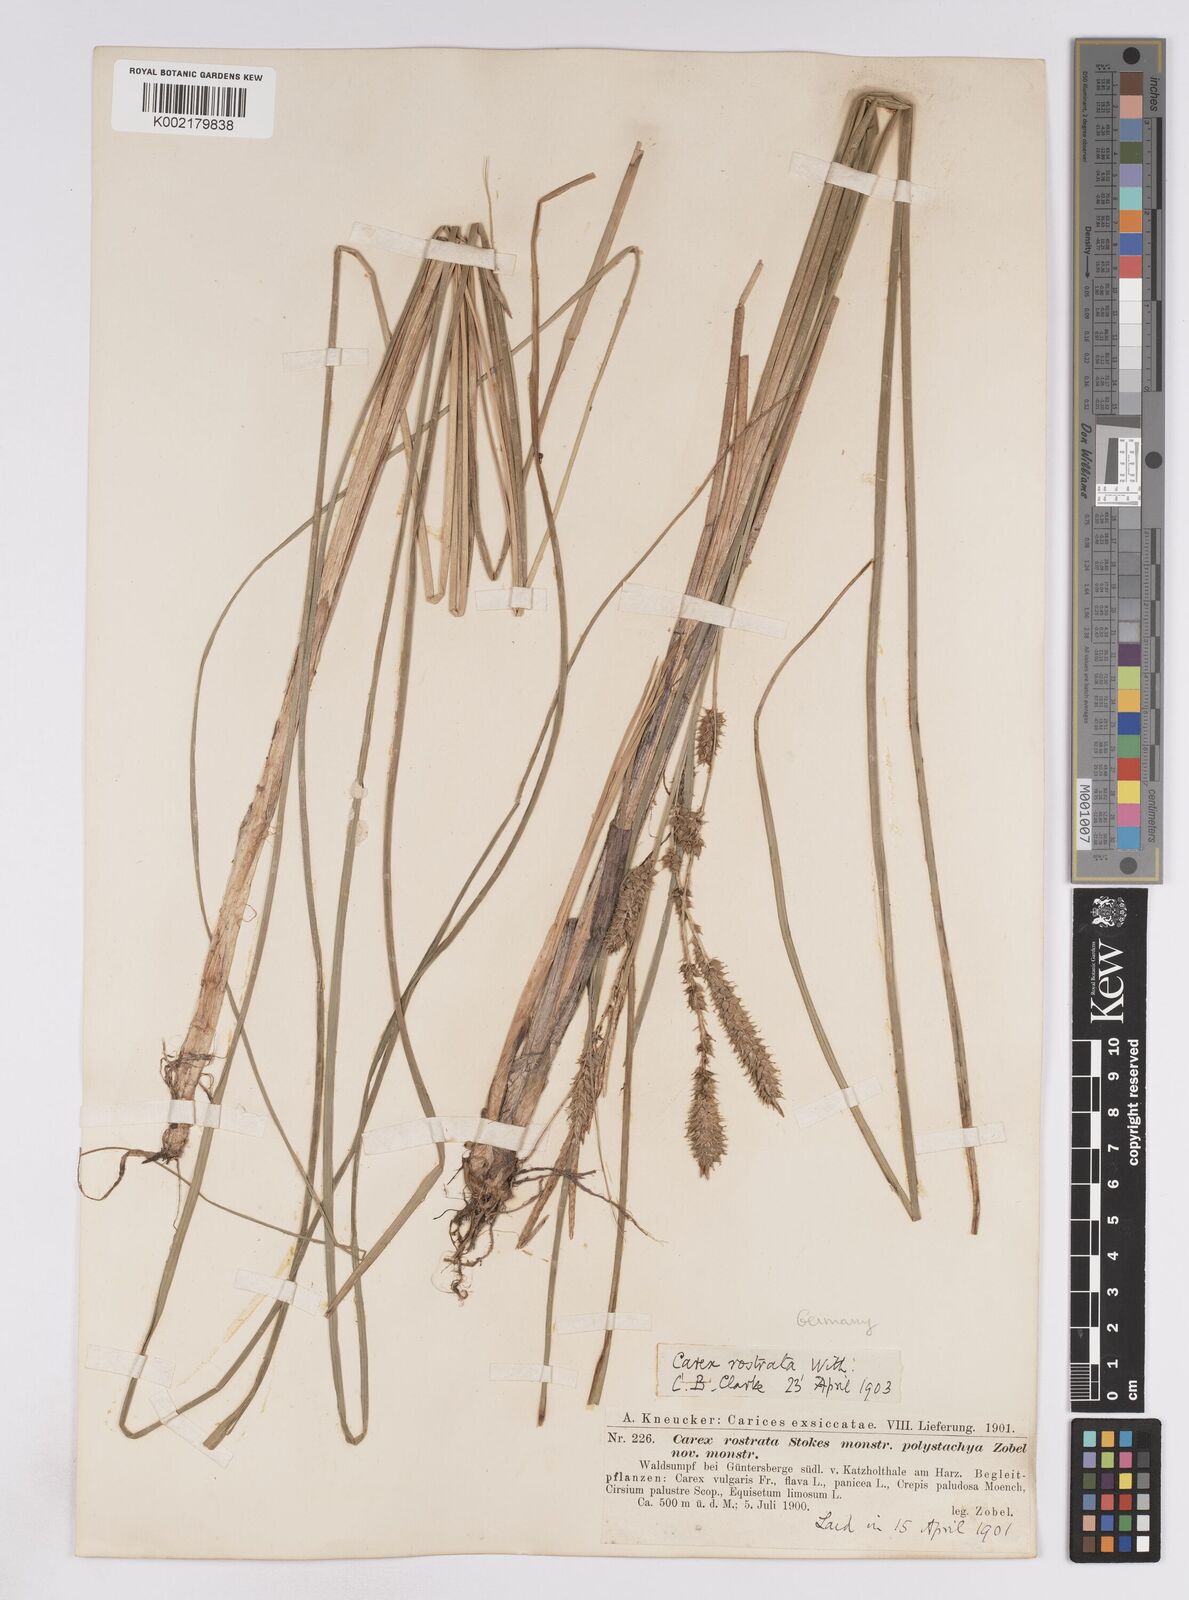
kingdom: Plantae
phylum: Tracheophyta
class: Liliopsida
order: Poales
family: Cyperaceae
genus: Carex
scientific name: Carex rostrata
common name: Bottle sedge
